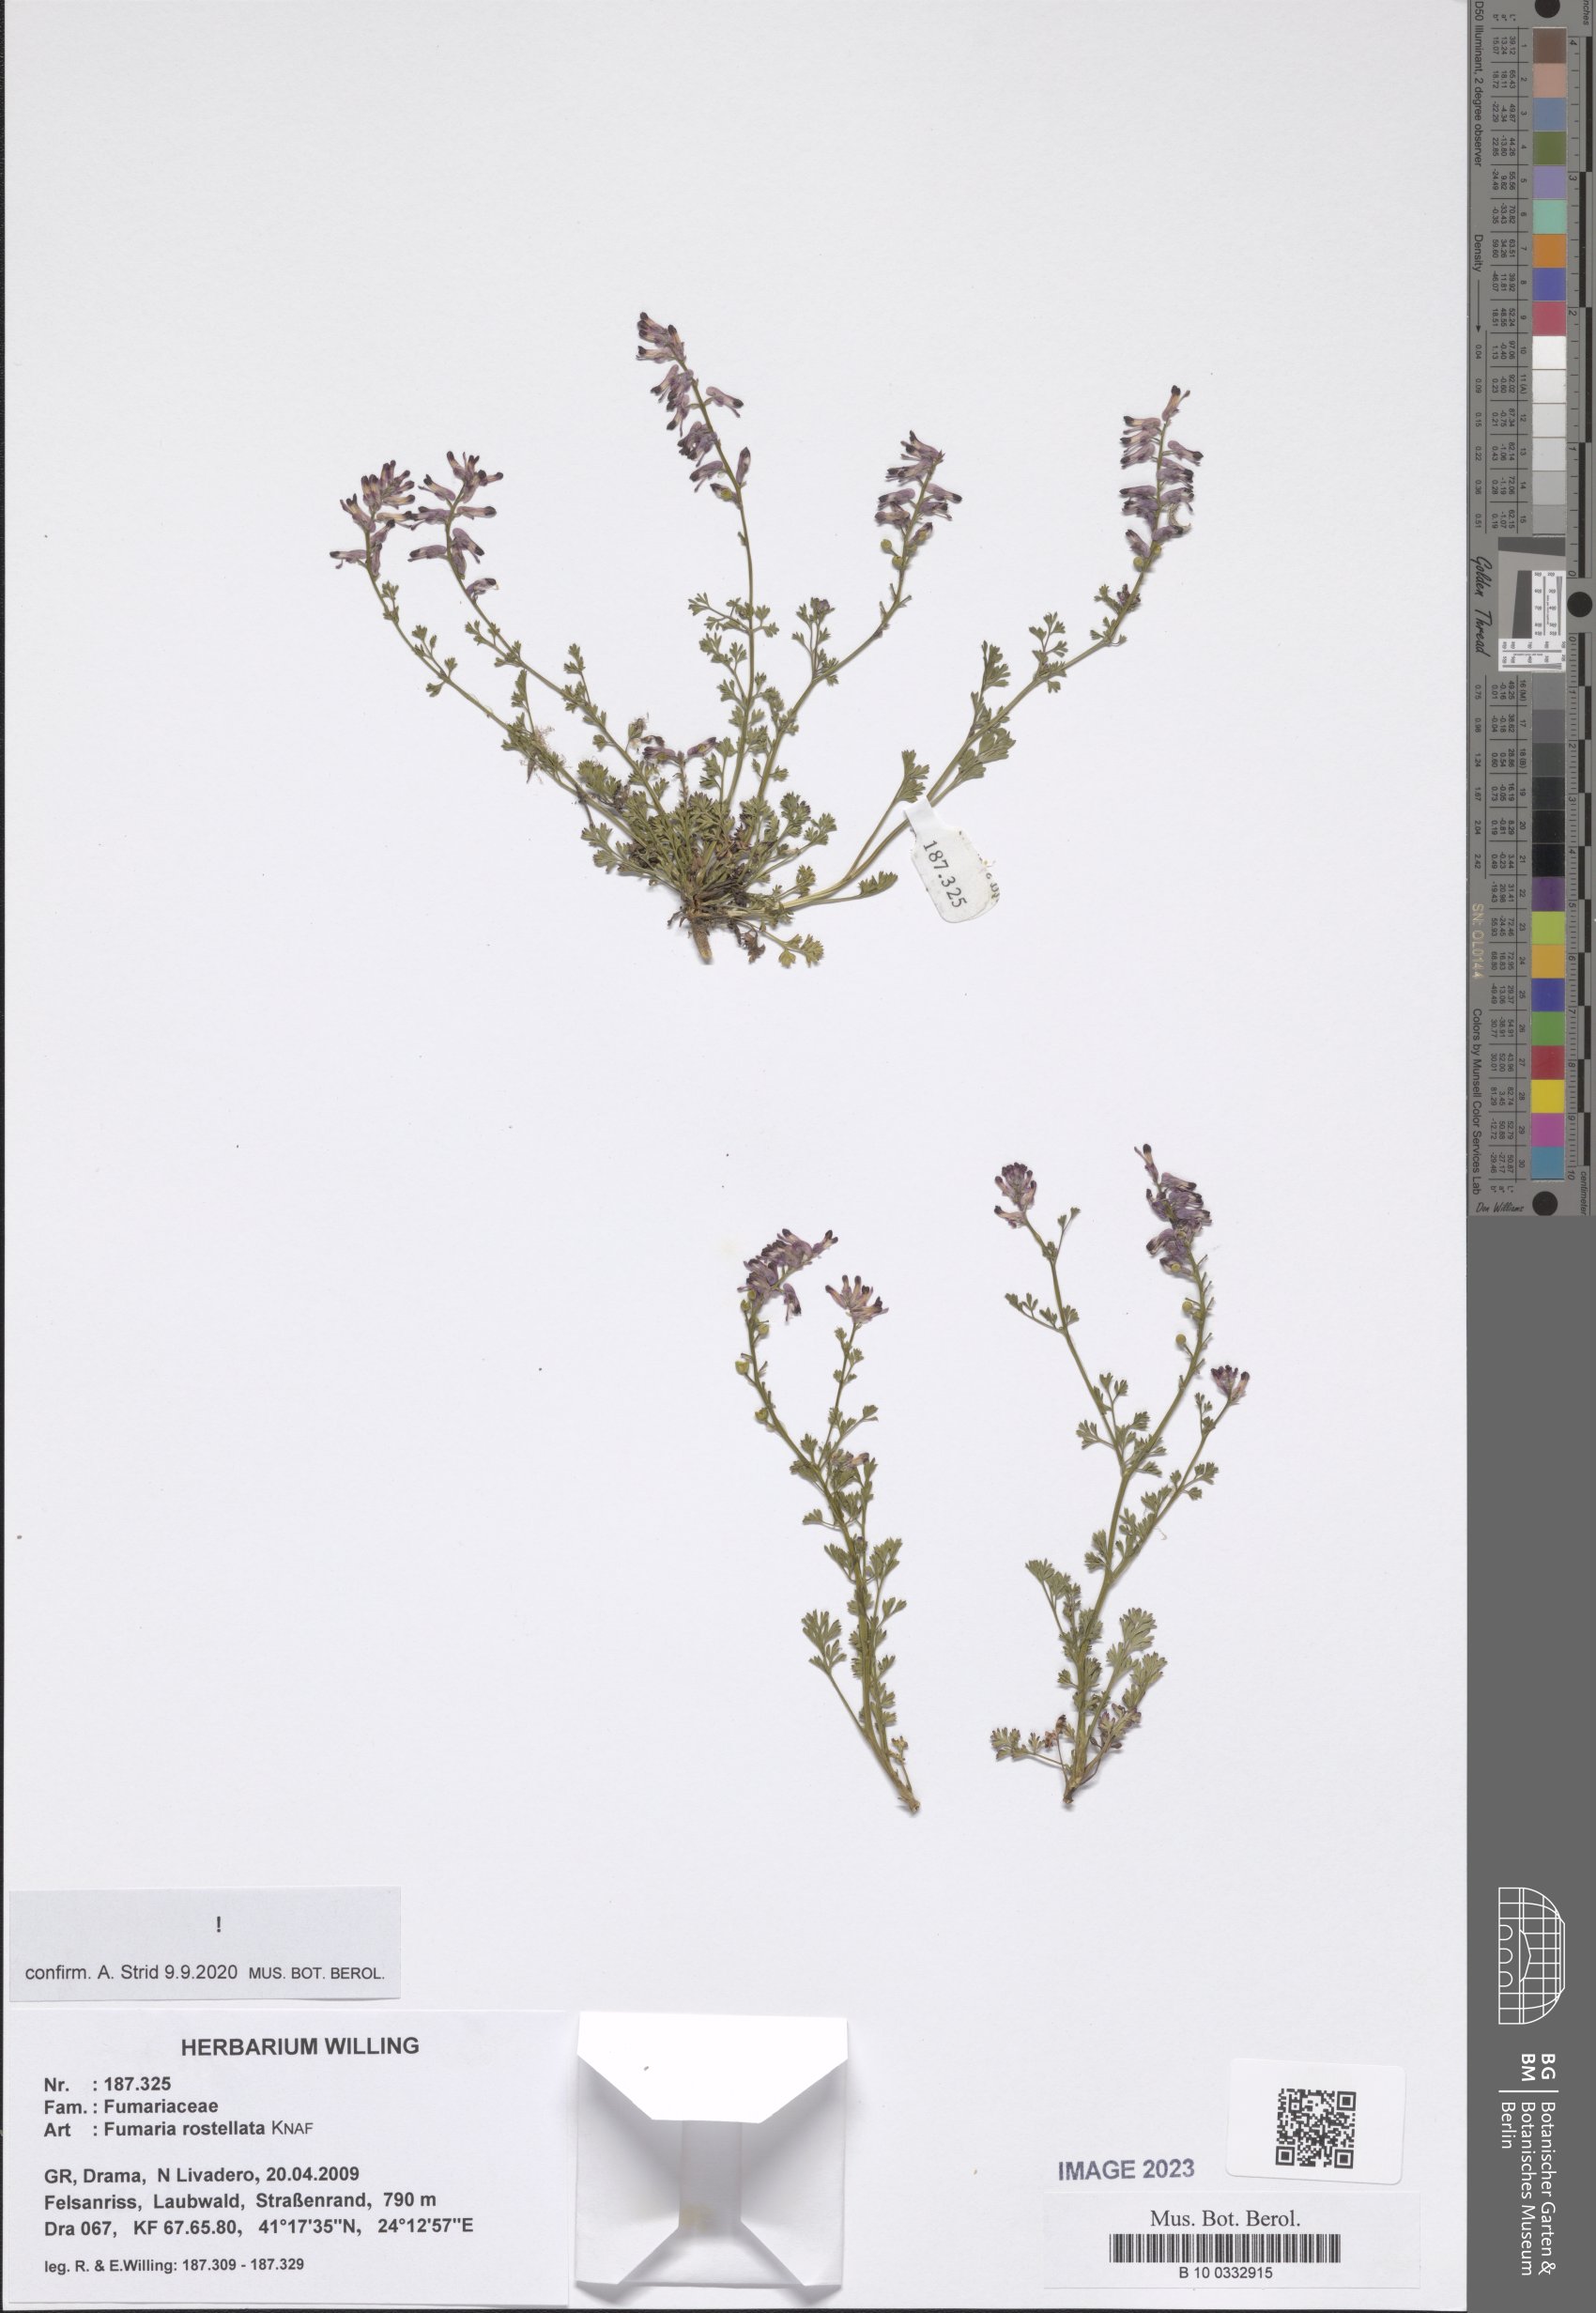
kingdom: Plantae
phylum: Tracheophyta
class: Magnoliopsida
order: Ranunculales
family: Papaveraceae
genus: Fumaria
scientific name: Fumaria rostellata
